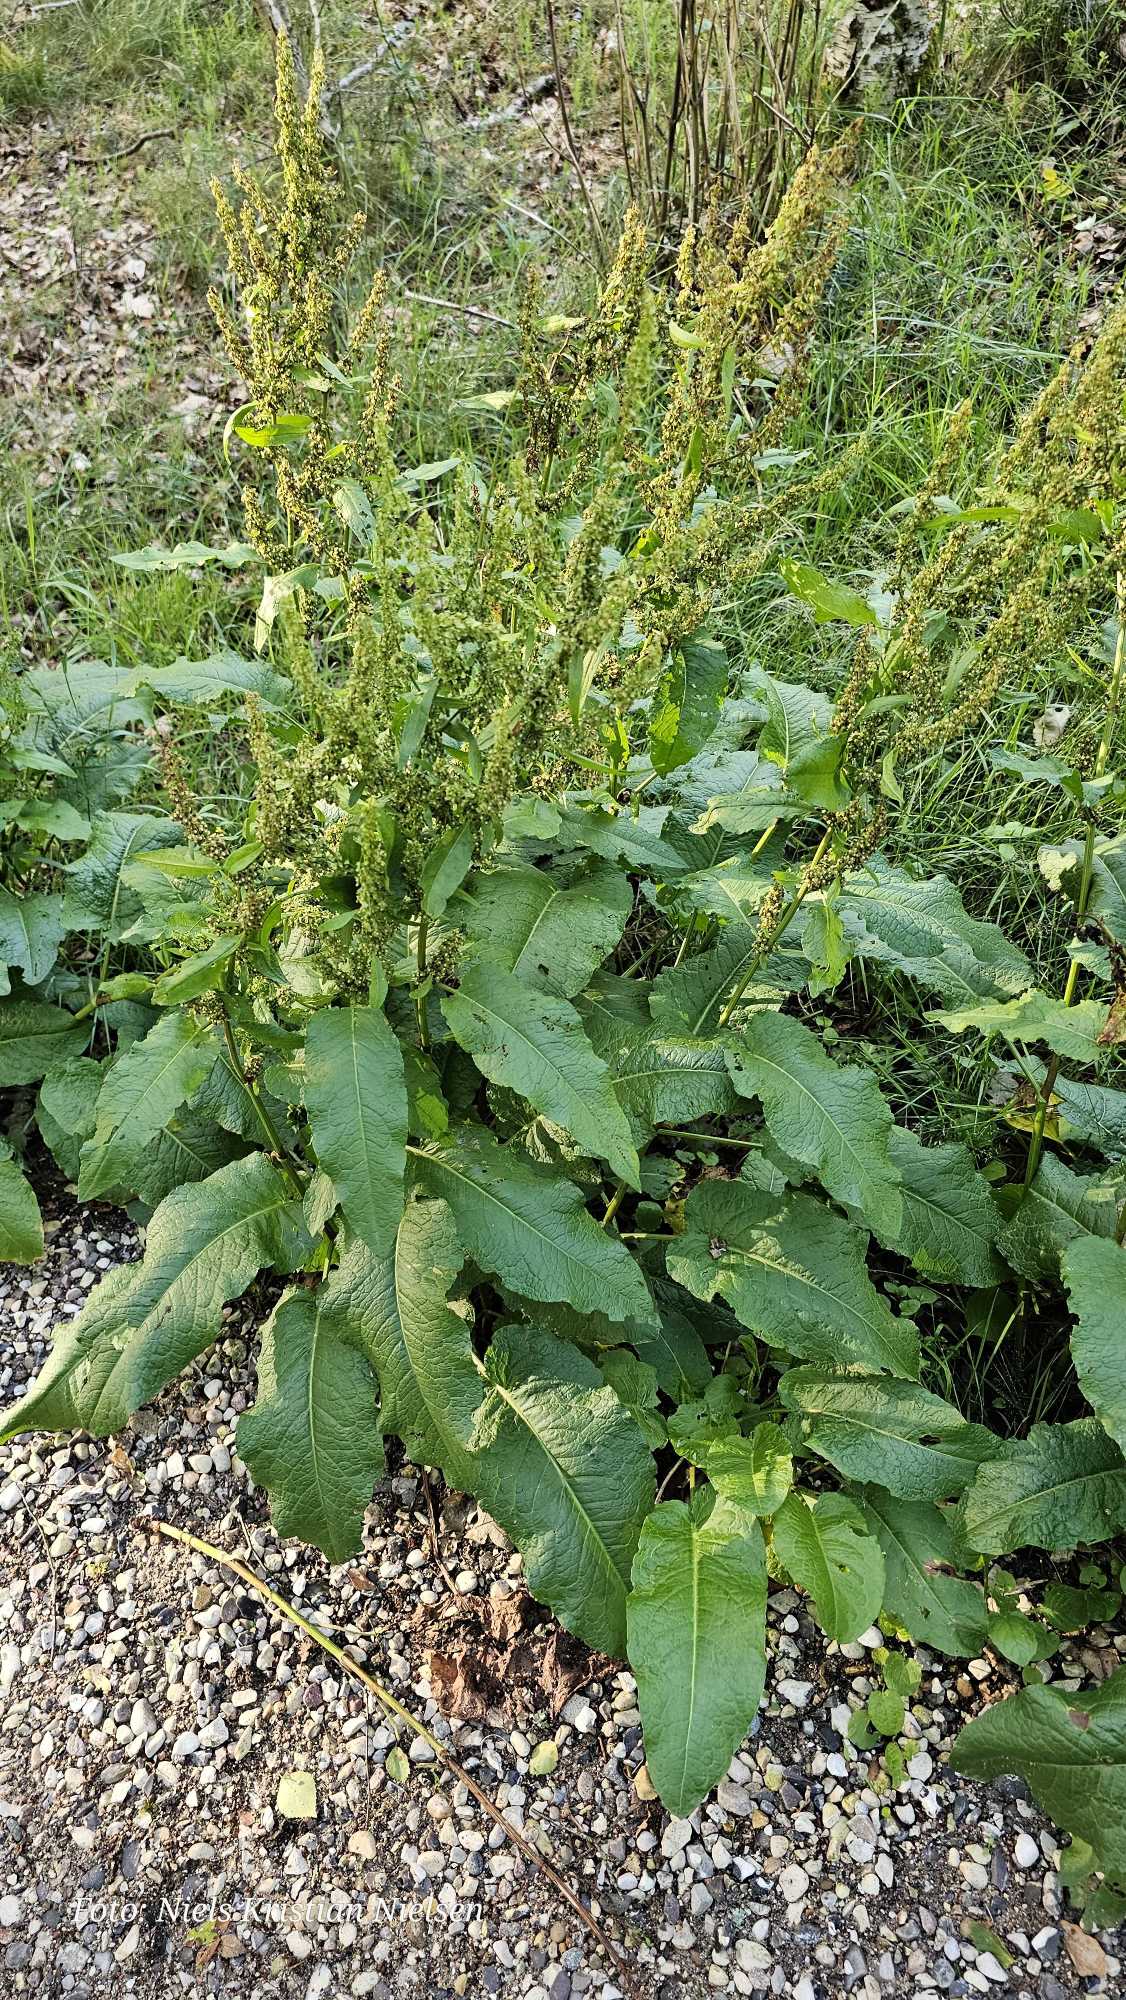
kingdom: Plantae
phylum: Tracheophyta
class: Magnoliopsida
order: Caryophyllales
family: Polygonaceae
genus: Rumex
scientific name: Rumex obtusifolius
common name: Butbladet skræppe
